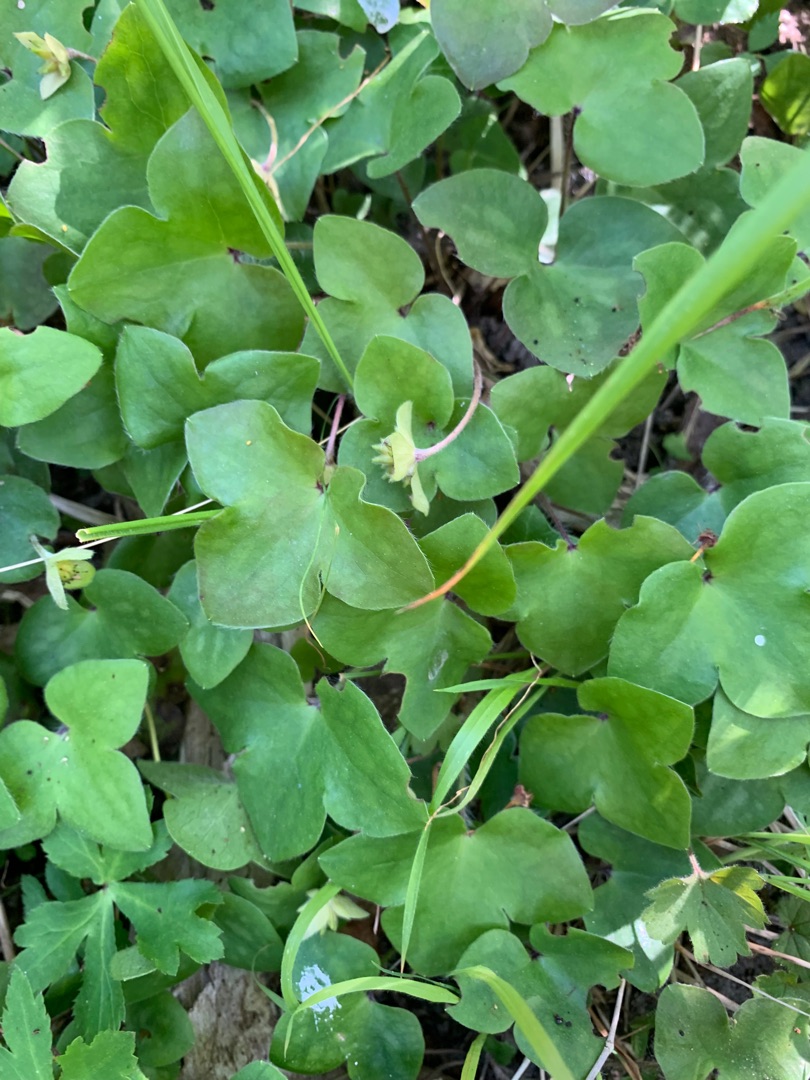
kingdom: Plantae
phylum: Tracheophyta
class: Magnoliopsida
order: Ranunculales
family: Ranunculaceae
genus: Hepatica
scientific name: Hepatica nobilis
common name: Blå anemone
